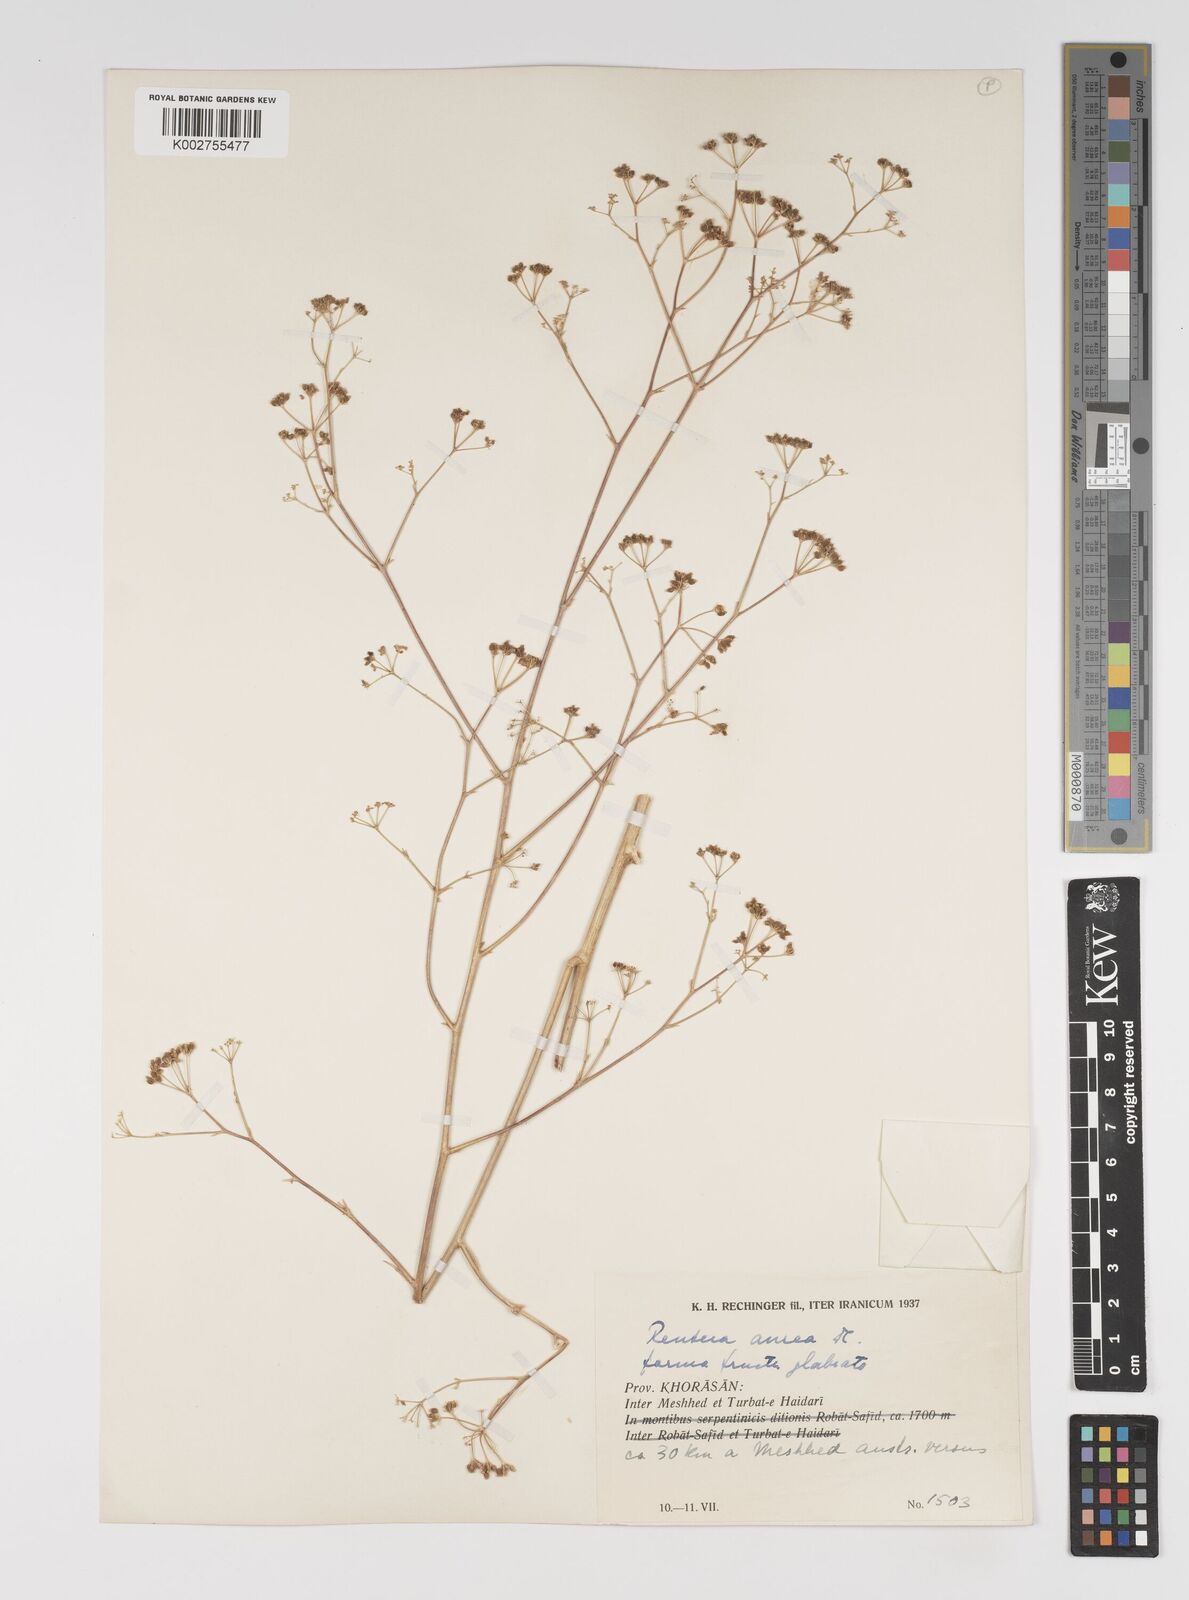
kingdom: Plantae
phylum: Tracheophyta
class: Magnoliopsida
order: Apiales
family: Apiaceae
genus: Pimpinella
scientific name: Pimpinella aurea
